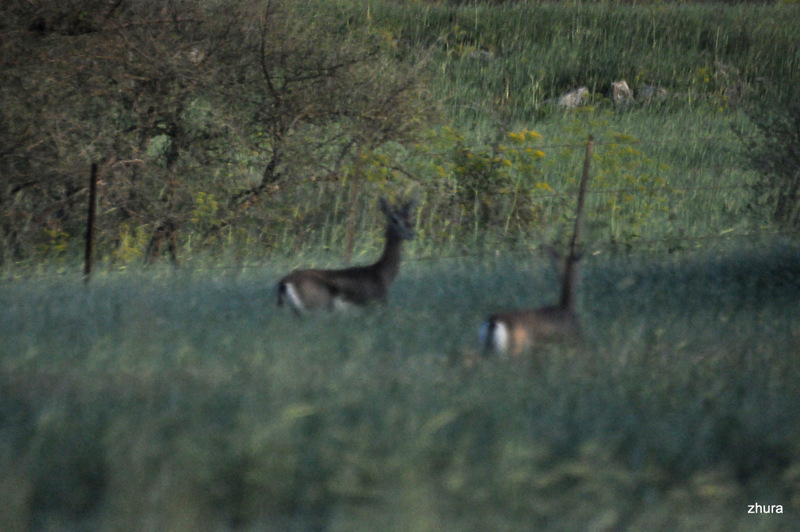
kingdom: Animalia
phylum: Chordata
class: Mammalia
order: Artiodactyla
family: Bovidae
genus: Gazella
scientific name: Gazella gazella
